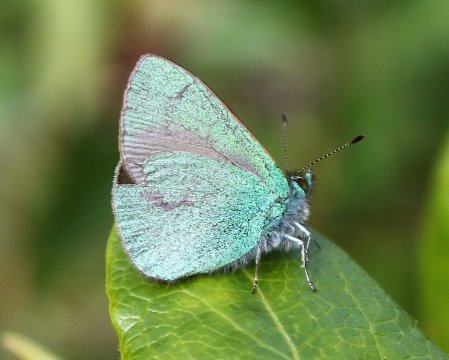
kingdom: Animalia
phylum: Arthropoda
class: Insecta
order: Lepidoptera
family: Lycaenidae
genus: Udara
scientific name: Udara blackburni
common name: Hawaiian Blue
